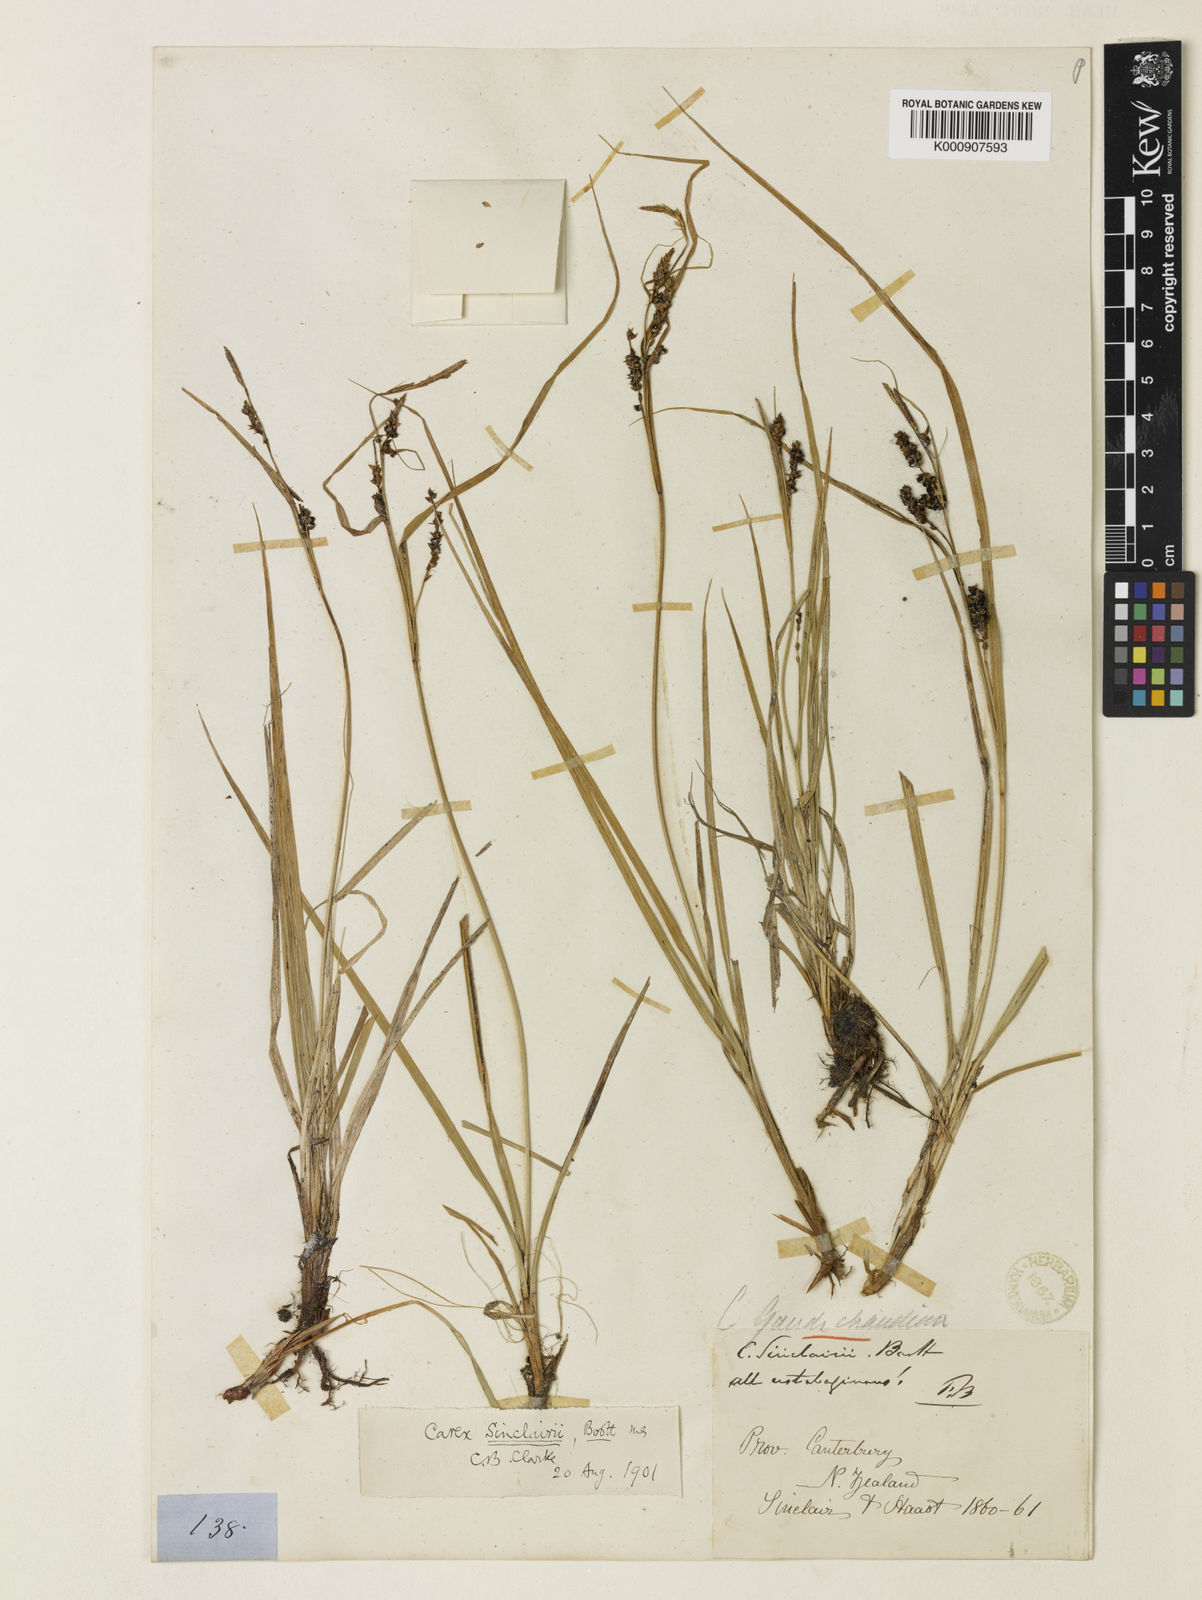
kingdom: Plantae
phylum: Tracheophyta
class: Liliopsida
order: Poales
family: Cyperaceae
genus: Carex
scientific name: Carex sinclairii
